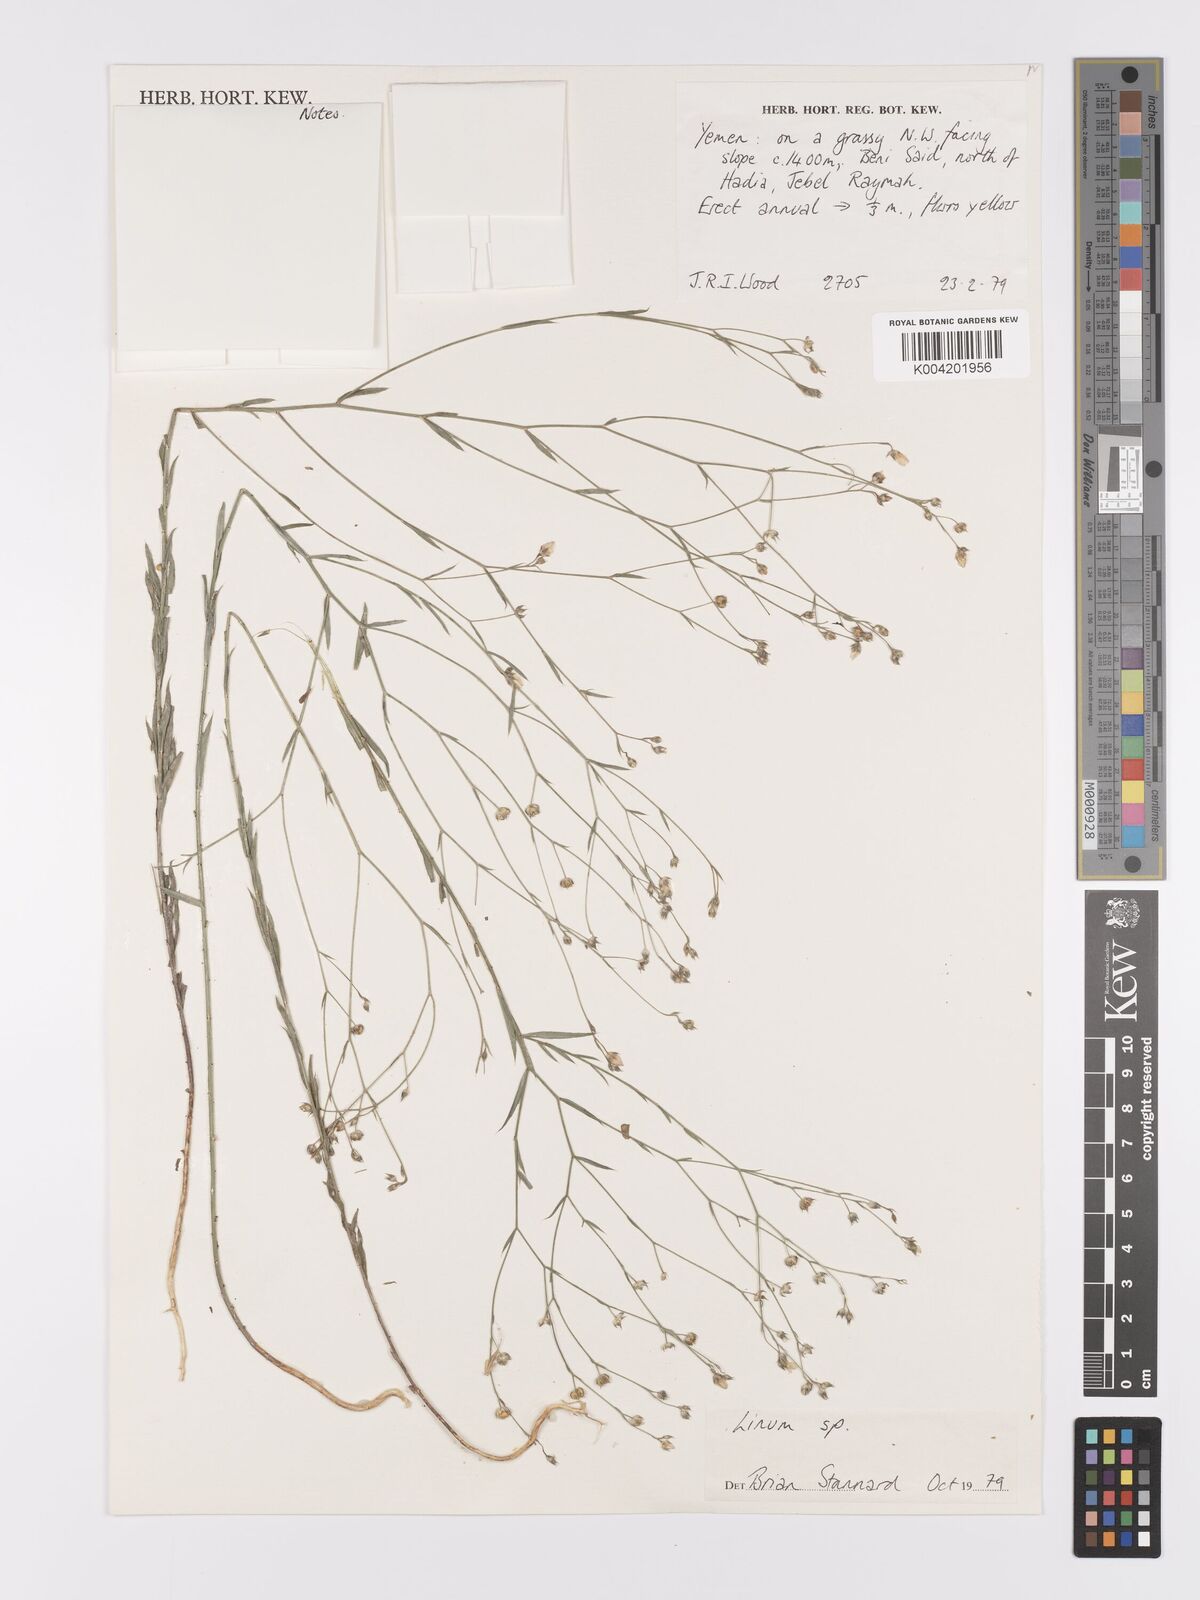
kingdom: Plantae
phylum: Tracheophyta
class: Magnoliopsida
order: Malpighiales
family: Linaceae
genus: Linum
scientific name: Linum
